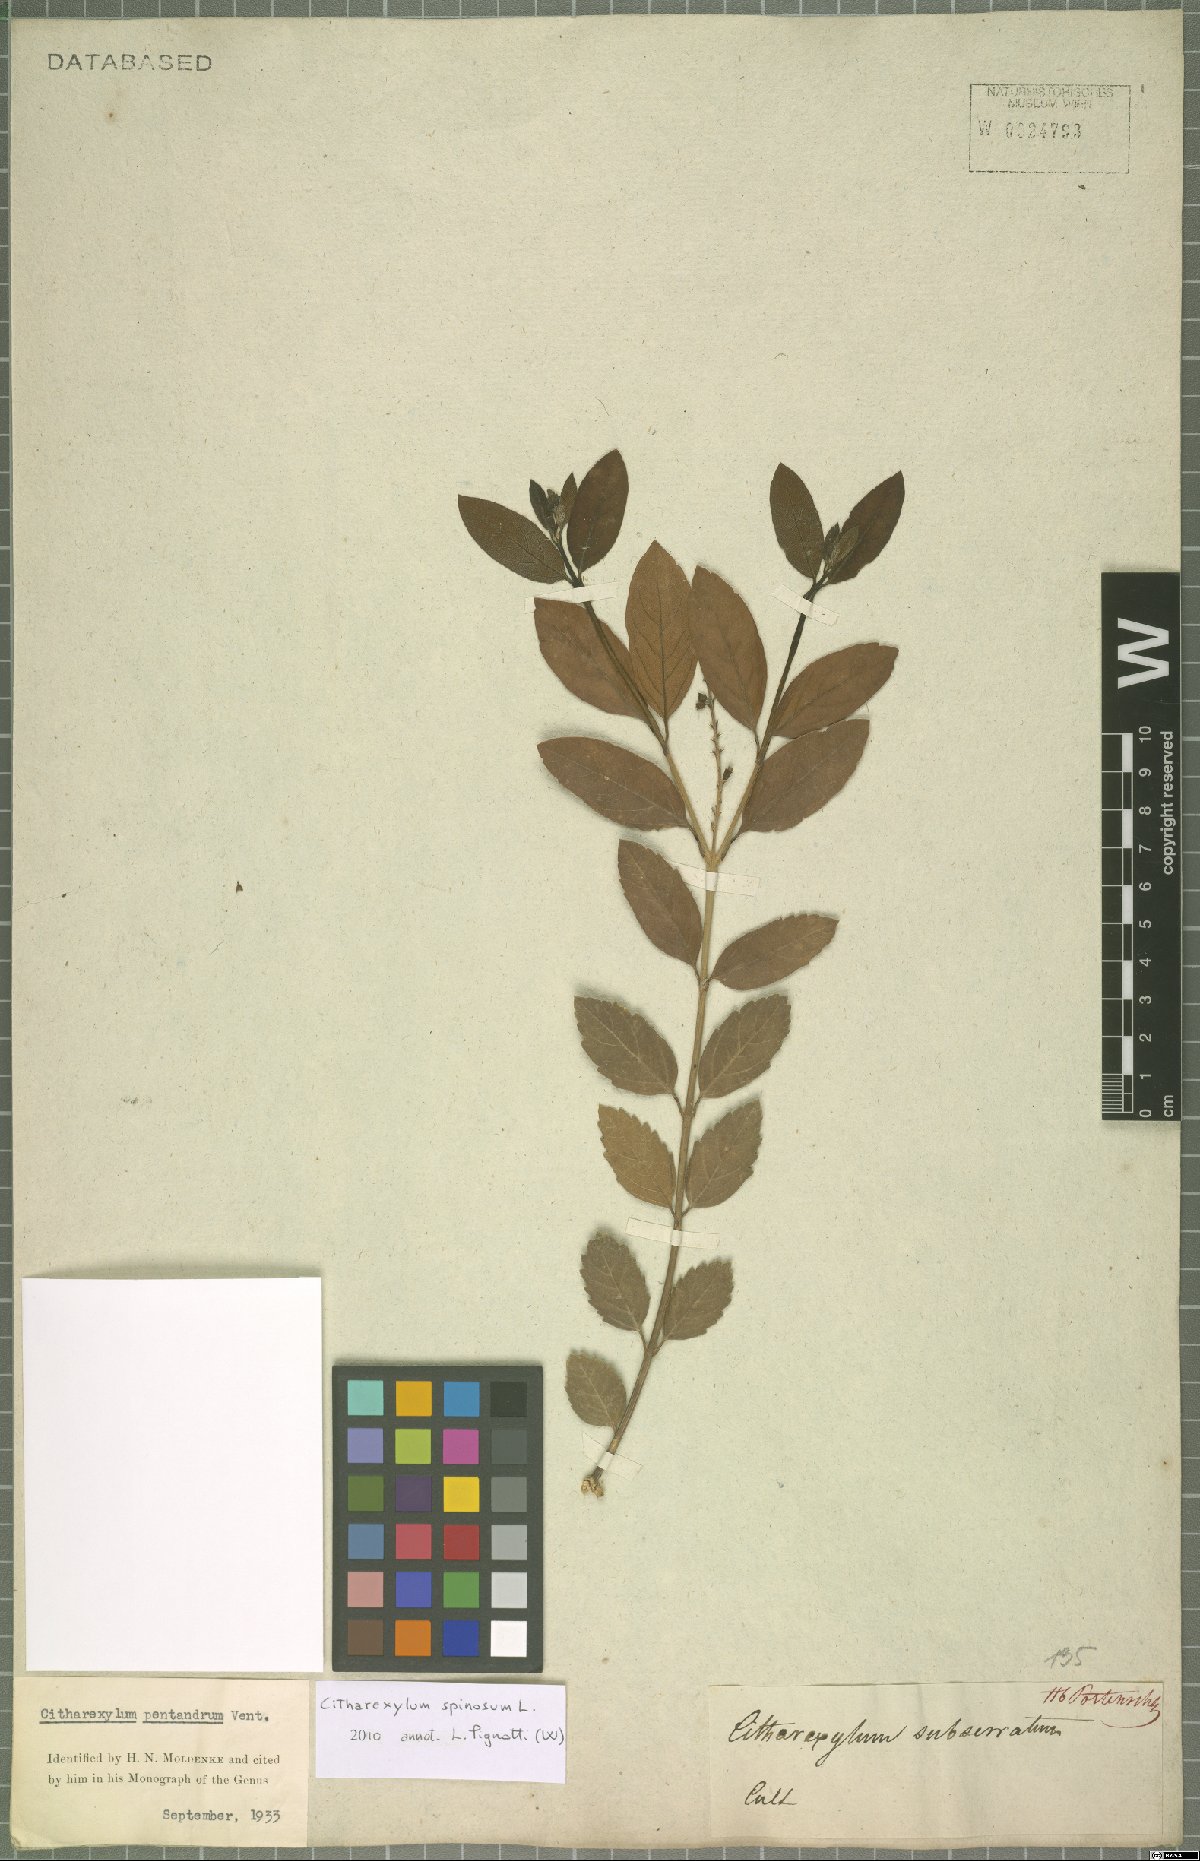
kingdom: Plantae
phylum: Tracheophyta
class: Magnoliopsida
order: Lamiales
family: Verbenaceae
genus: Citharexylum
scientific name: Citharexylum spinosum
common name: Fiddlewood
